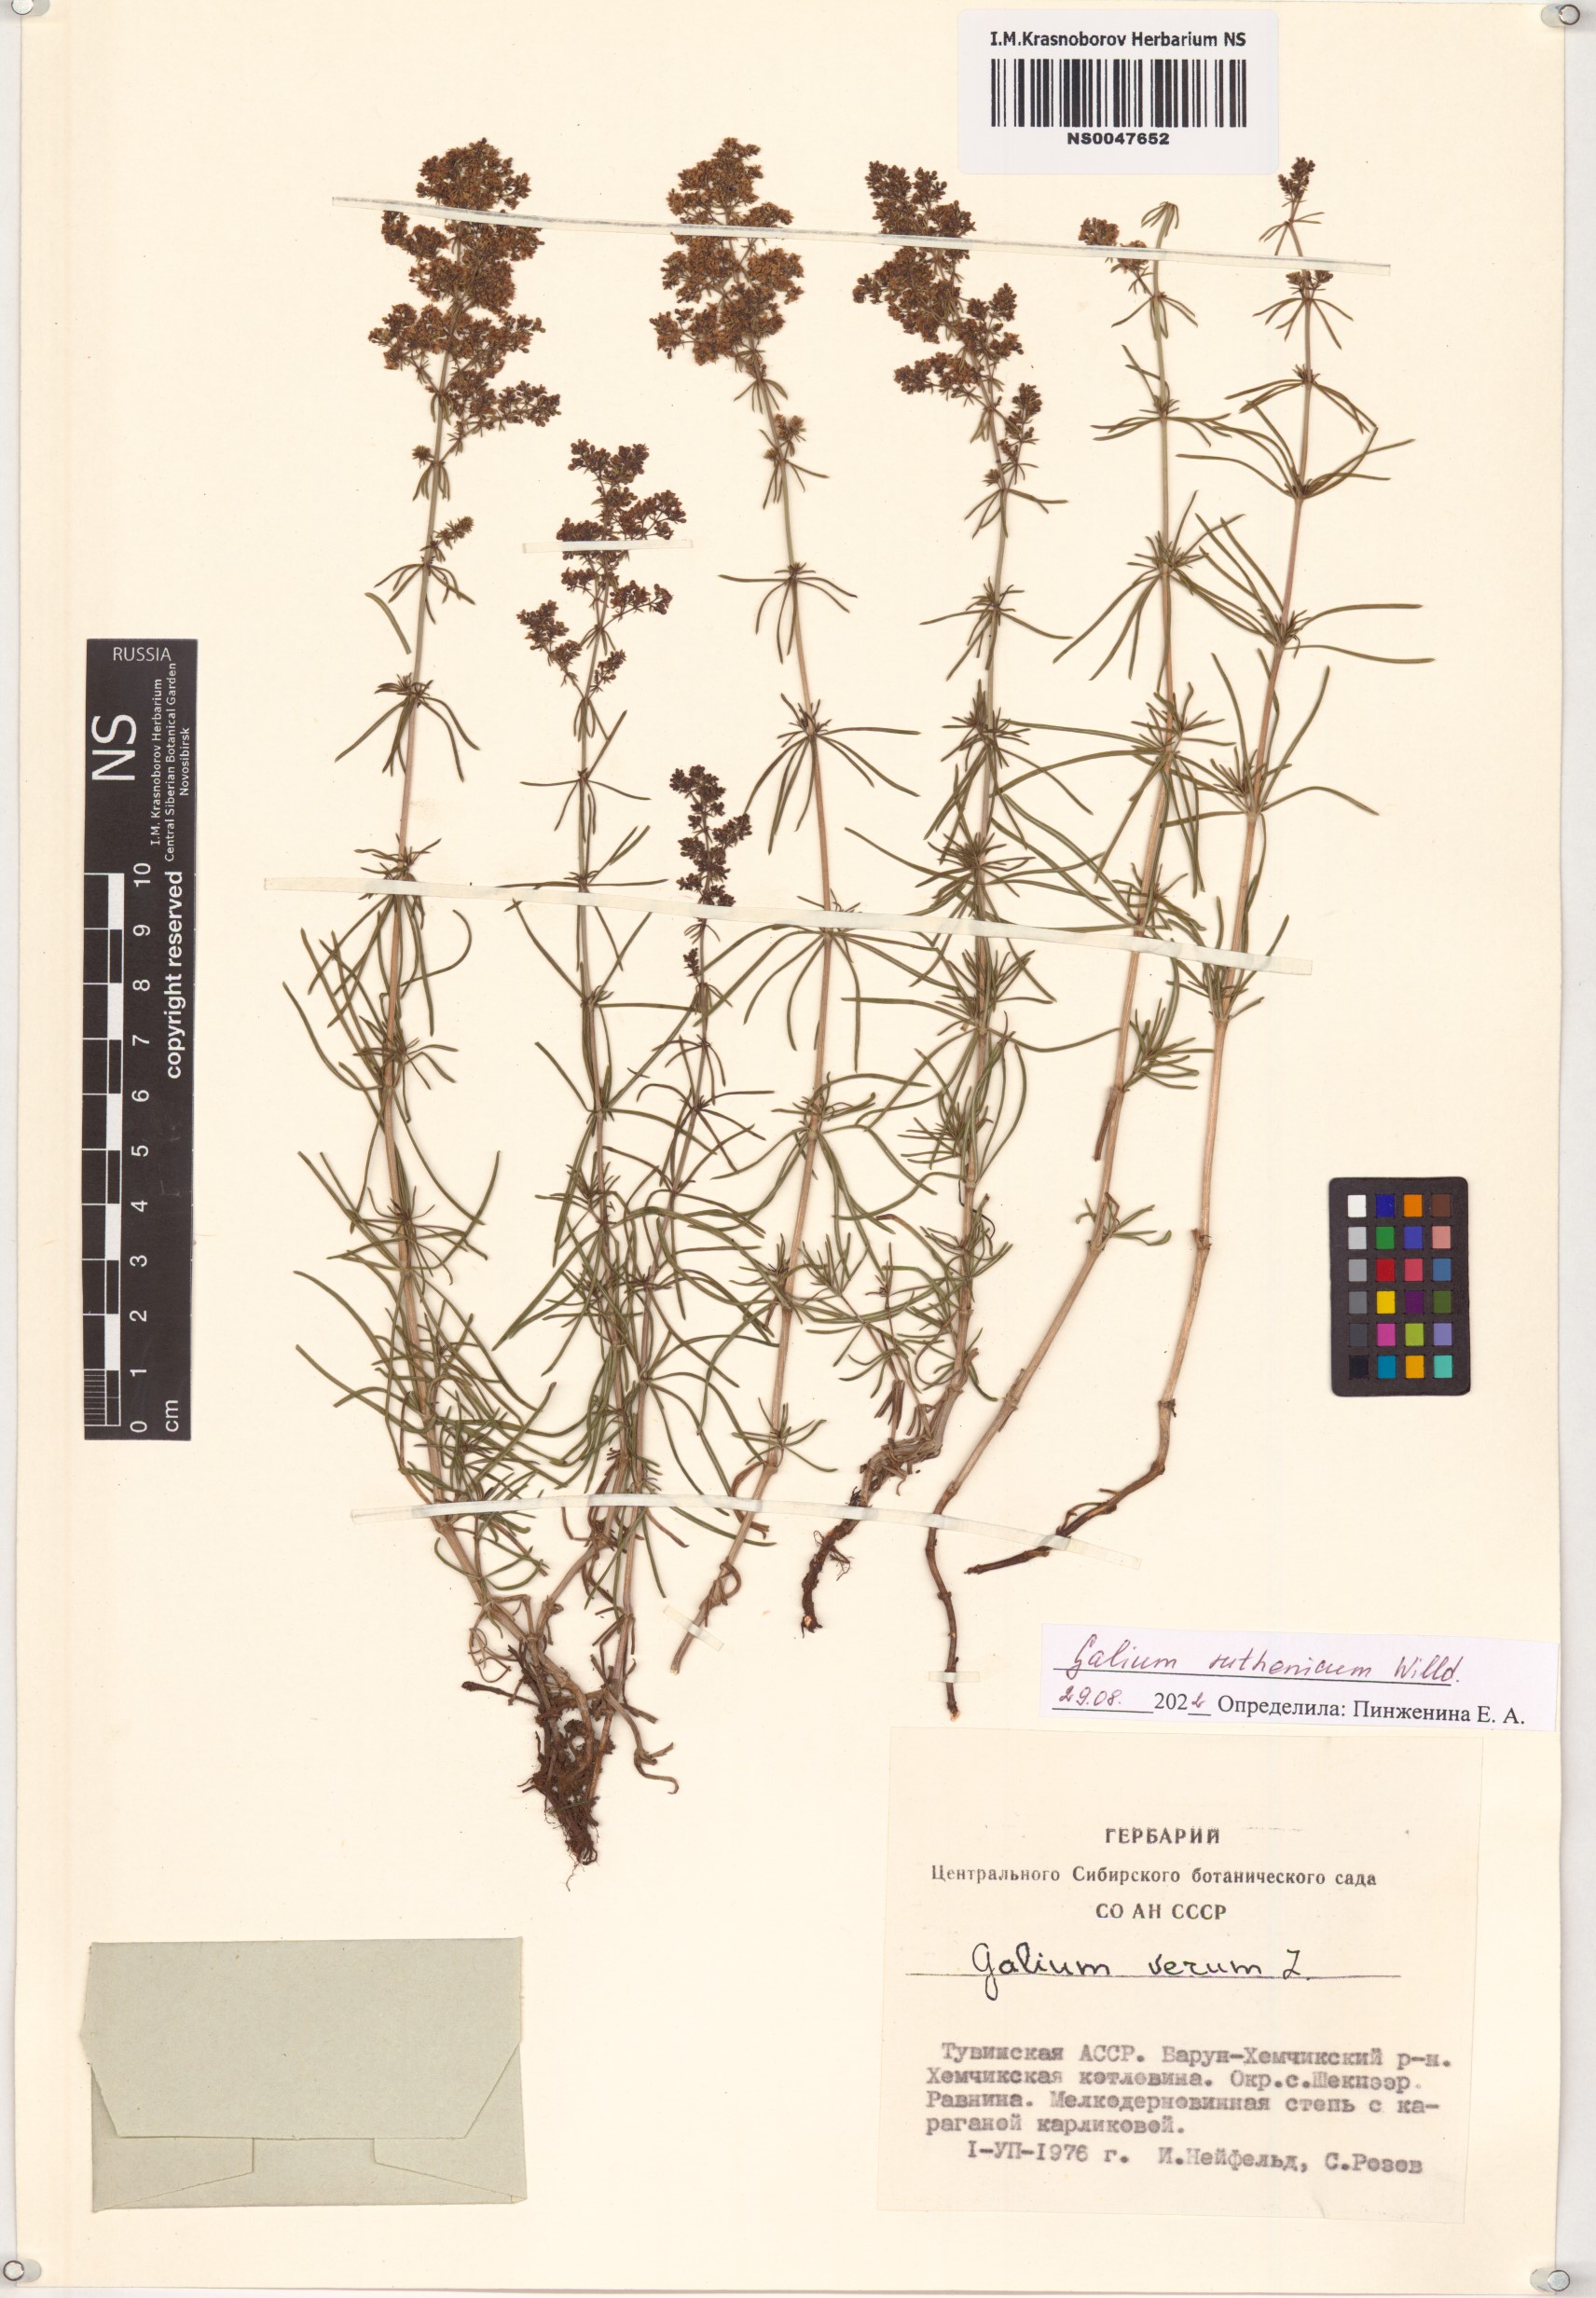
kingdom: Plantae
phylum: Tracheophyta
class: Magnoliopsida
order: Gentianales
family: Rubiaceae
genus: Galium
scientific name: Galium verum
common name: Lady's bedstraw
